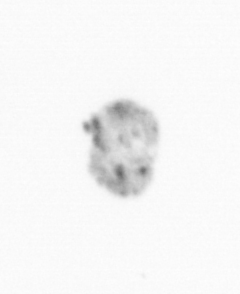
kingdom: Chromista
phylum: Ochrophyta
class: Bacillariophyceae
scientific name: Bacillariophyceae
